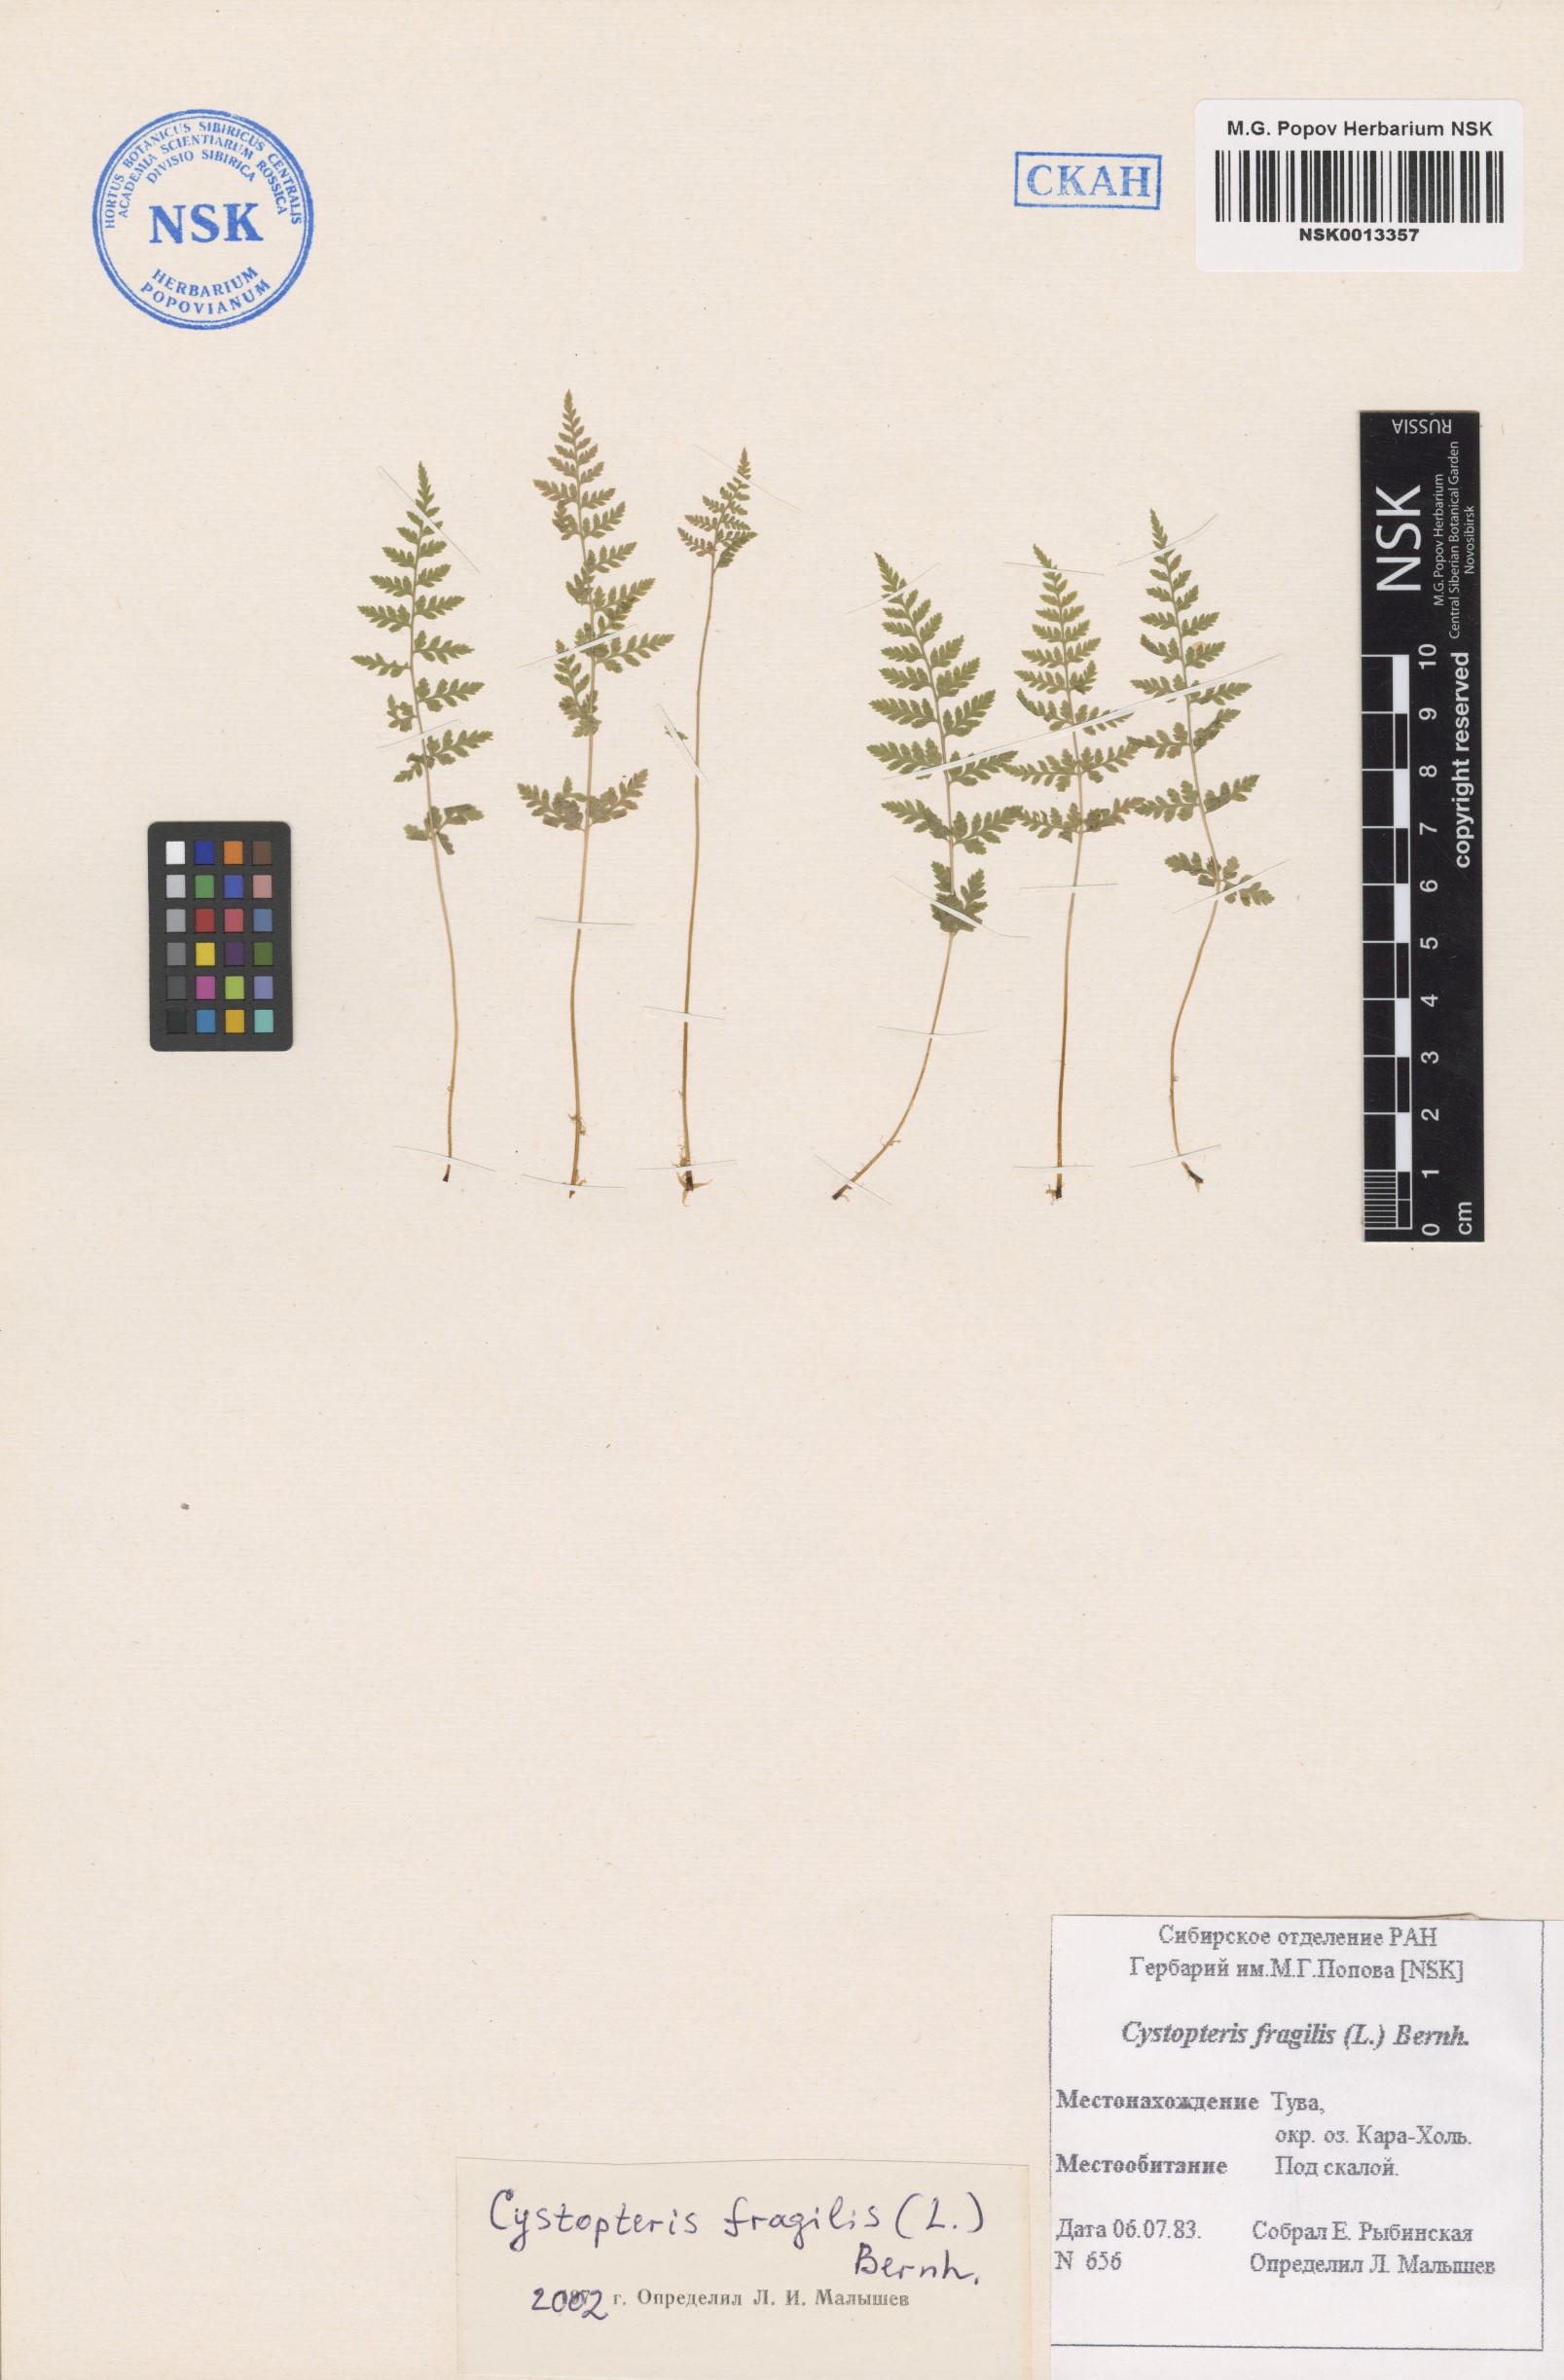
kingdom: Plantae
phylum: Tracheophyta
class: Polypodiopsida
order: Polypodiales
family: Cystopteridaceae
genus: Cystopteris
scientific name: Cystopteris fragilis
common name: Brittle bladder fern
